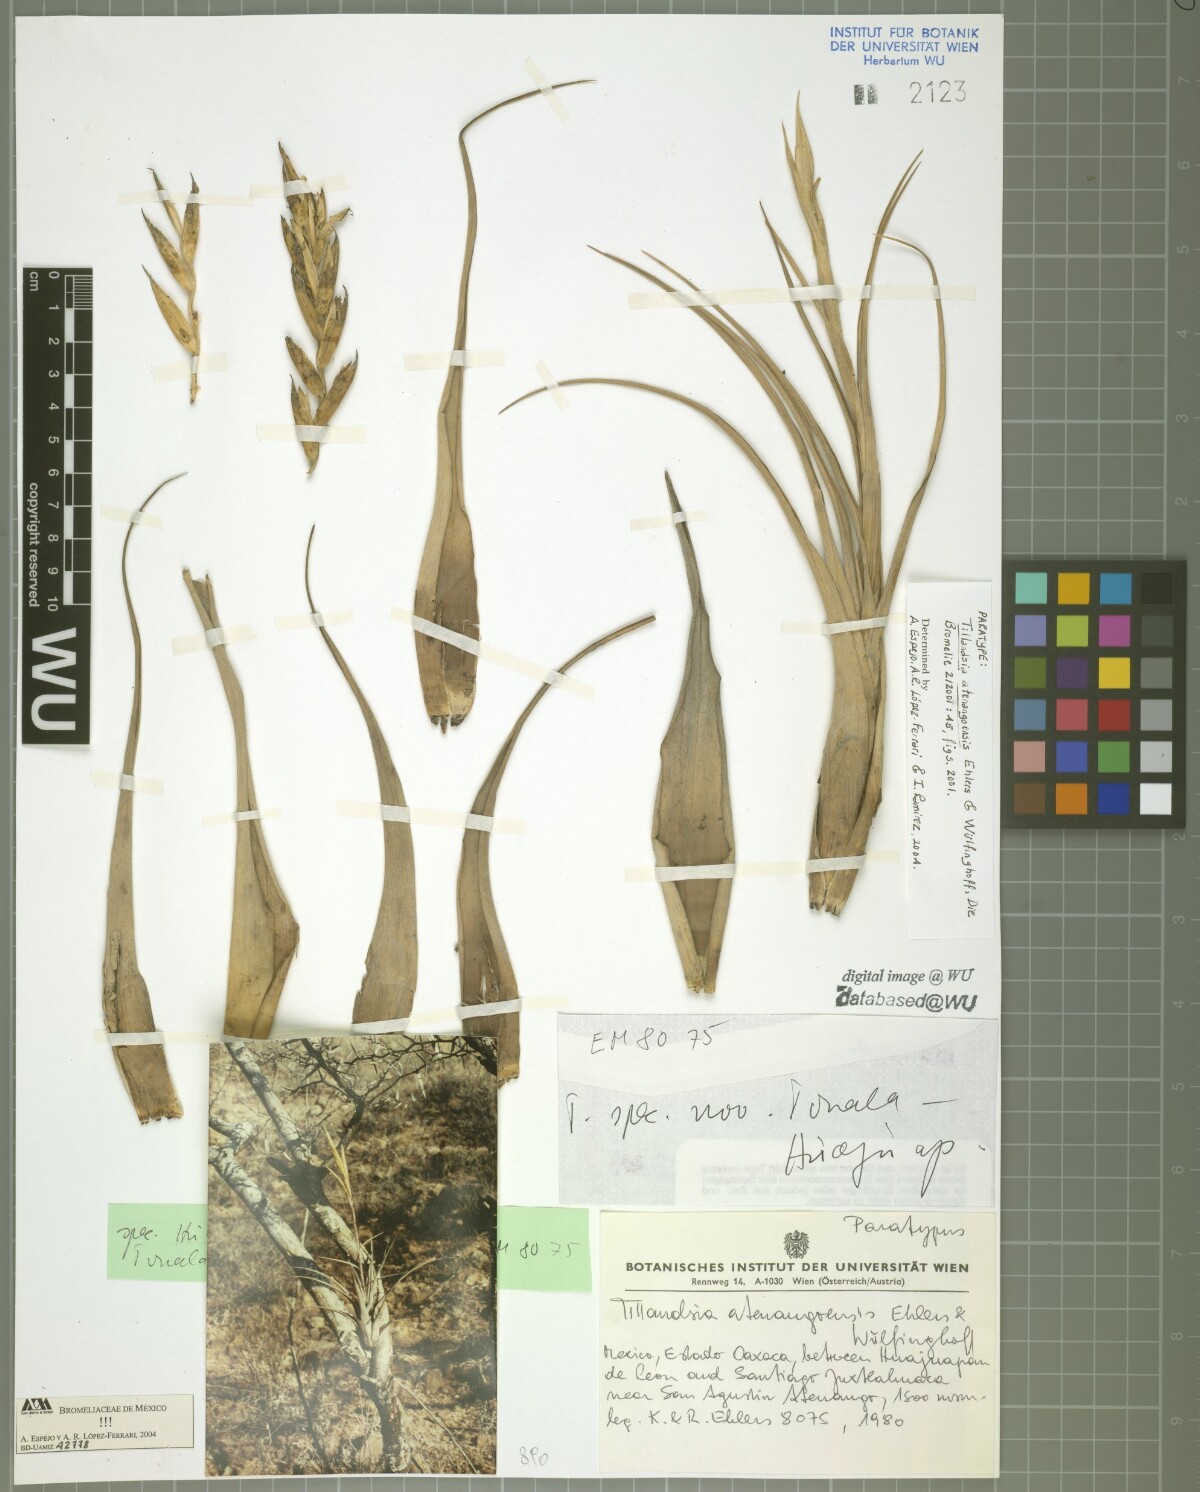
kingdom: Plantae
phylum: Tracheophyta
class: Liliopsida
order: Poales
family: Bromeliaceae
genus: Tillandsia
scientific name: Tillandsia atenangoensis
